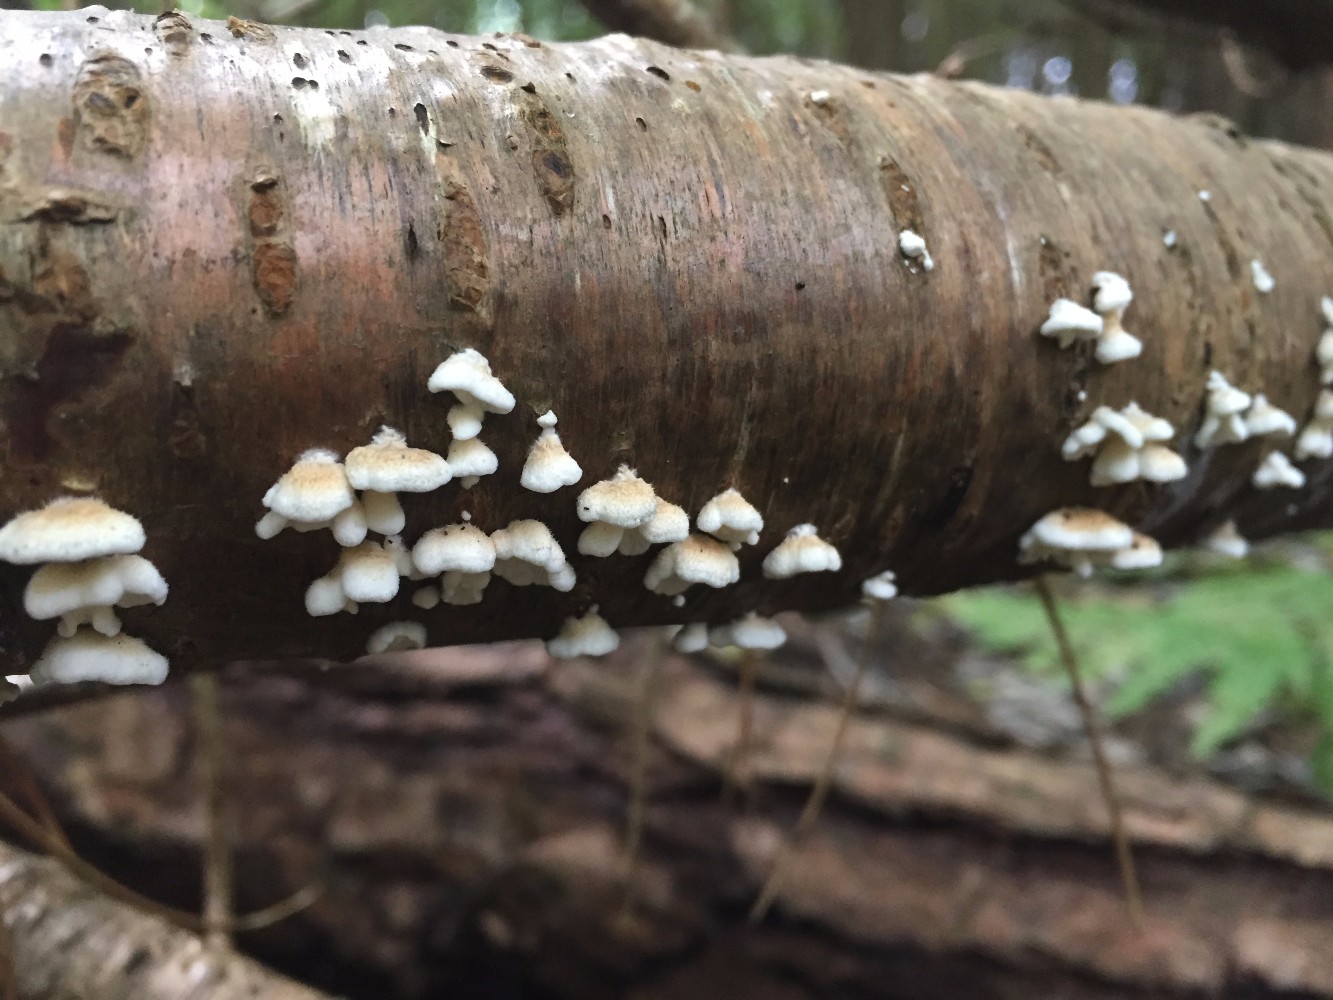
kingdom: Fungi
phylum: Basidiomycota
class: Agaricomycetes
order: Amylocorticiales
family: Amylocorticiaceae
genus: Plicaturopsis
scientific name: Plicaturopsis crispa
